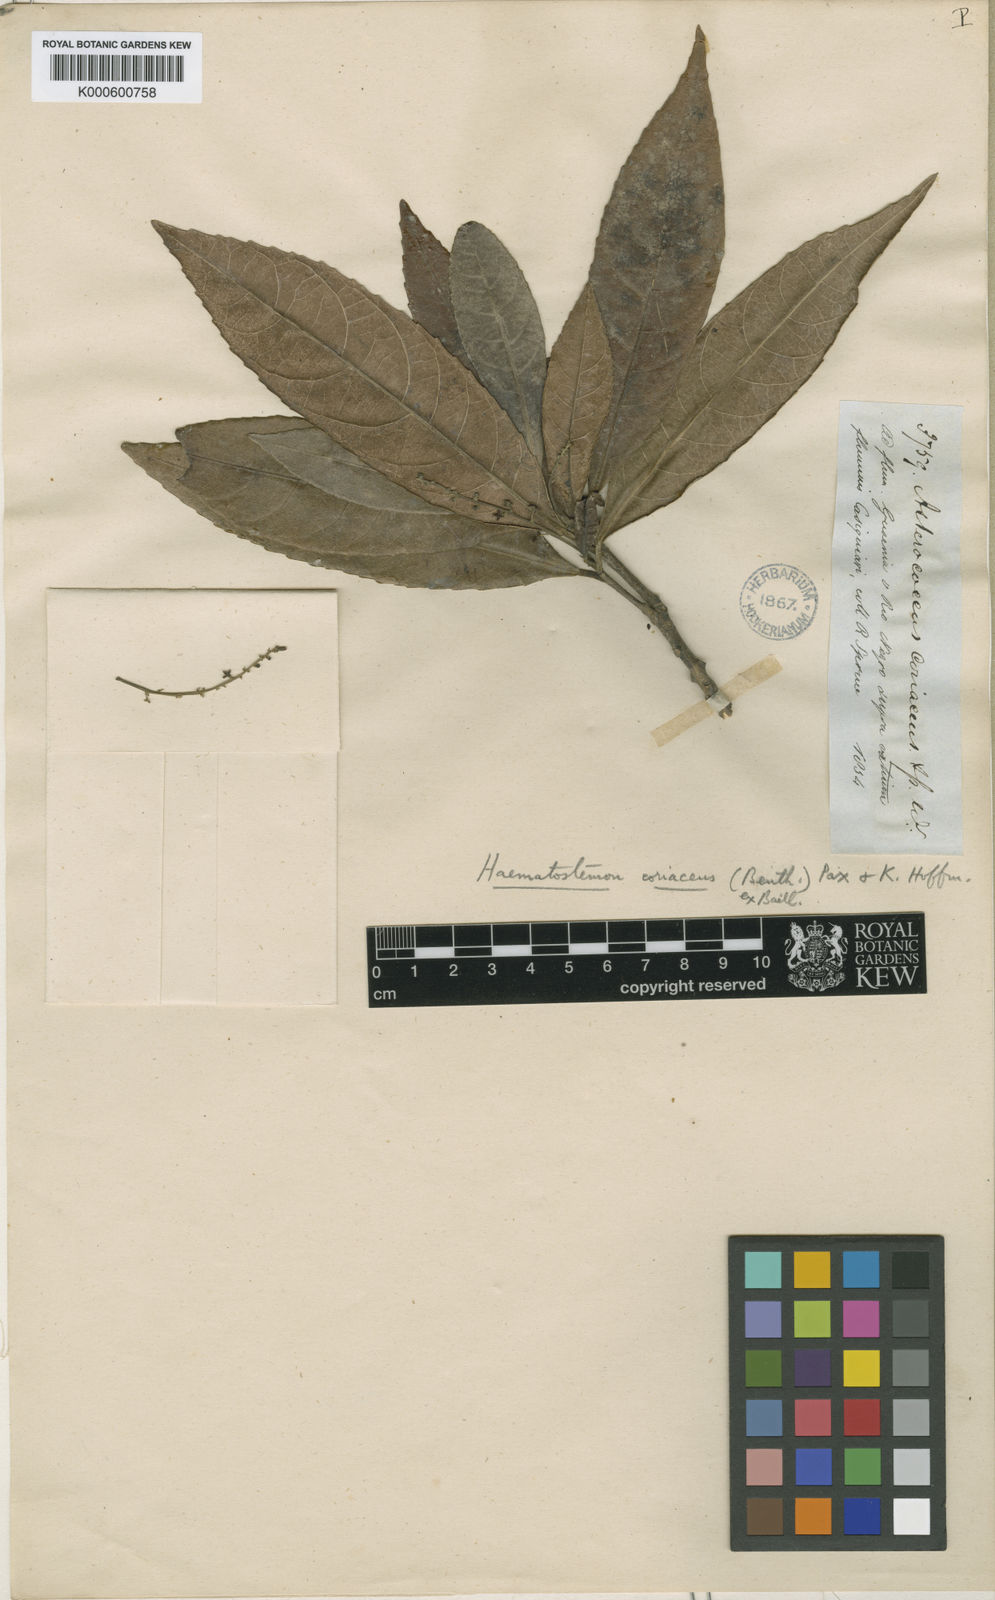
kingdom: Plantae
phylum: Tracheophyta
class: Magnoliopsida
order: Malpighiales
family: Euphorbiaceae
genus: Haematostemon
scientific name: Haematostemon coriaceus
